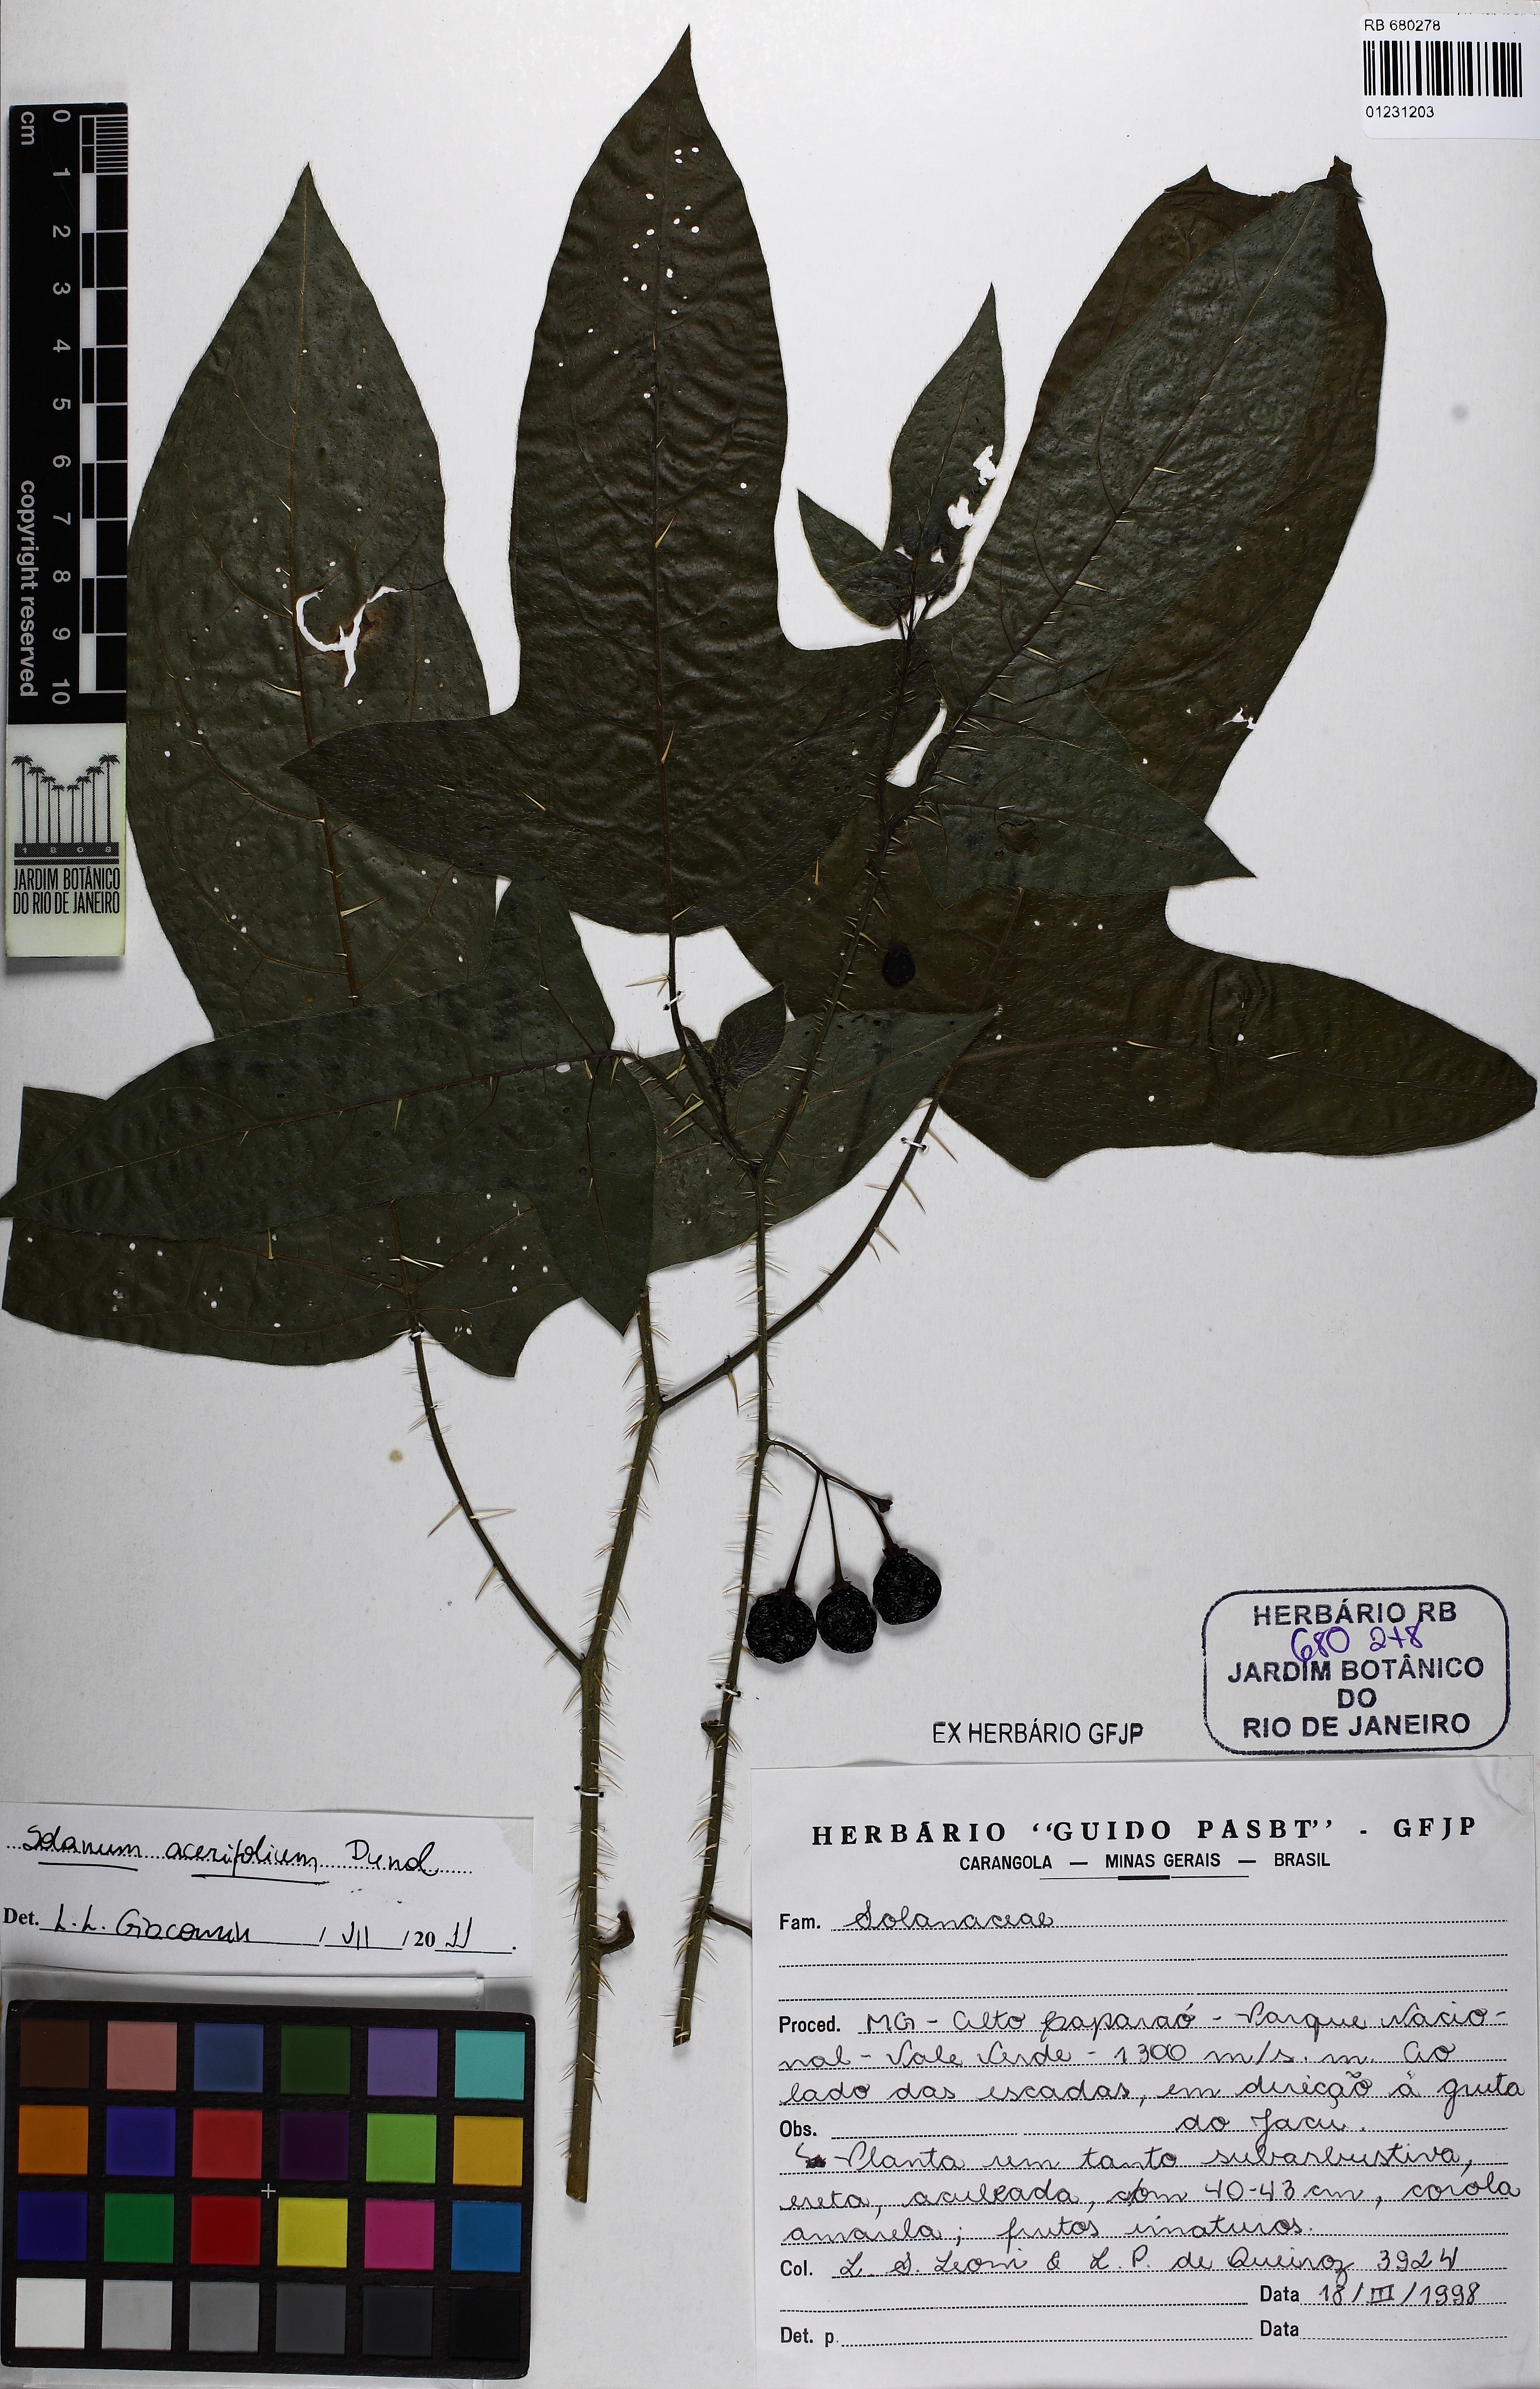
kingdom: Plantae
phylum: Tracheophyta
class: Magnoliopsida
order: Solanales
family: Solanaceae
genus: Solanum
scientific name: Solanum acerifolium
